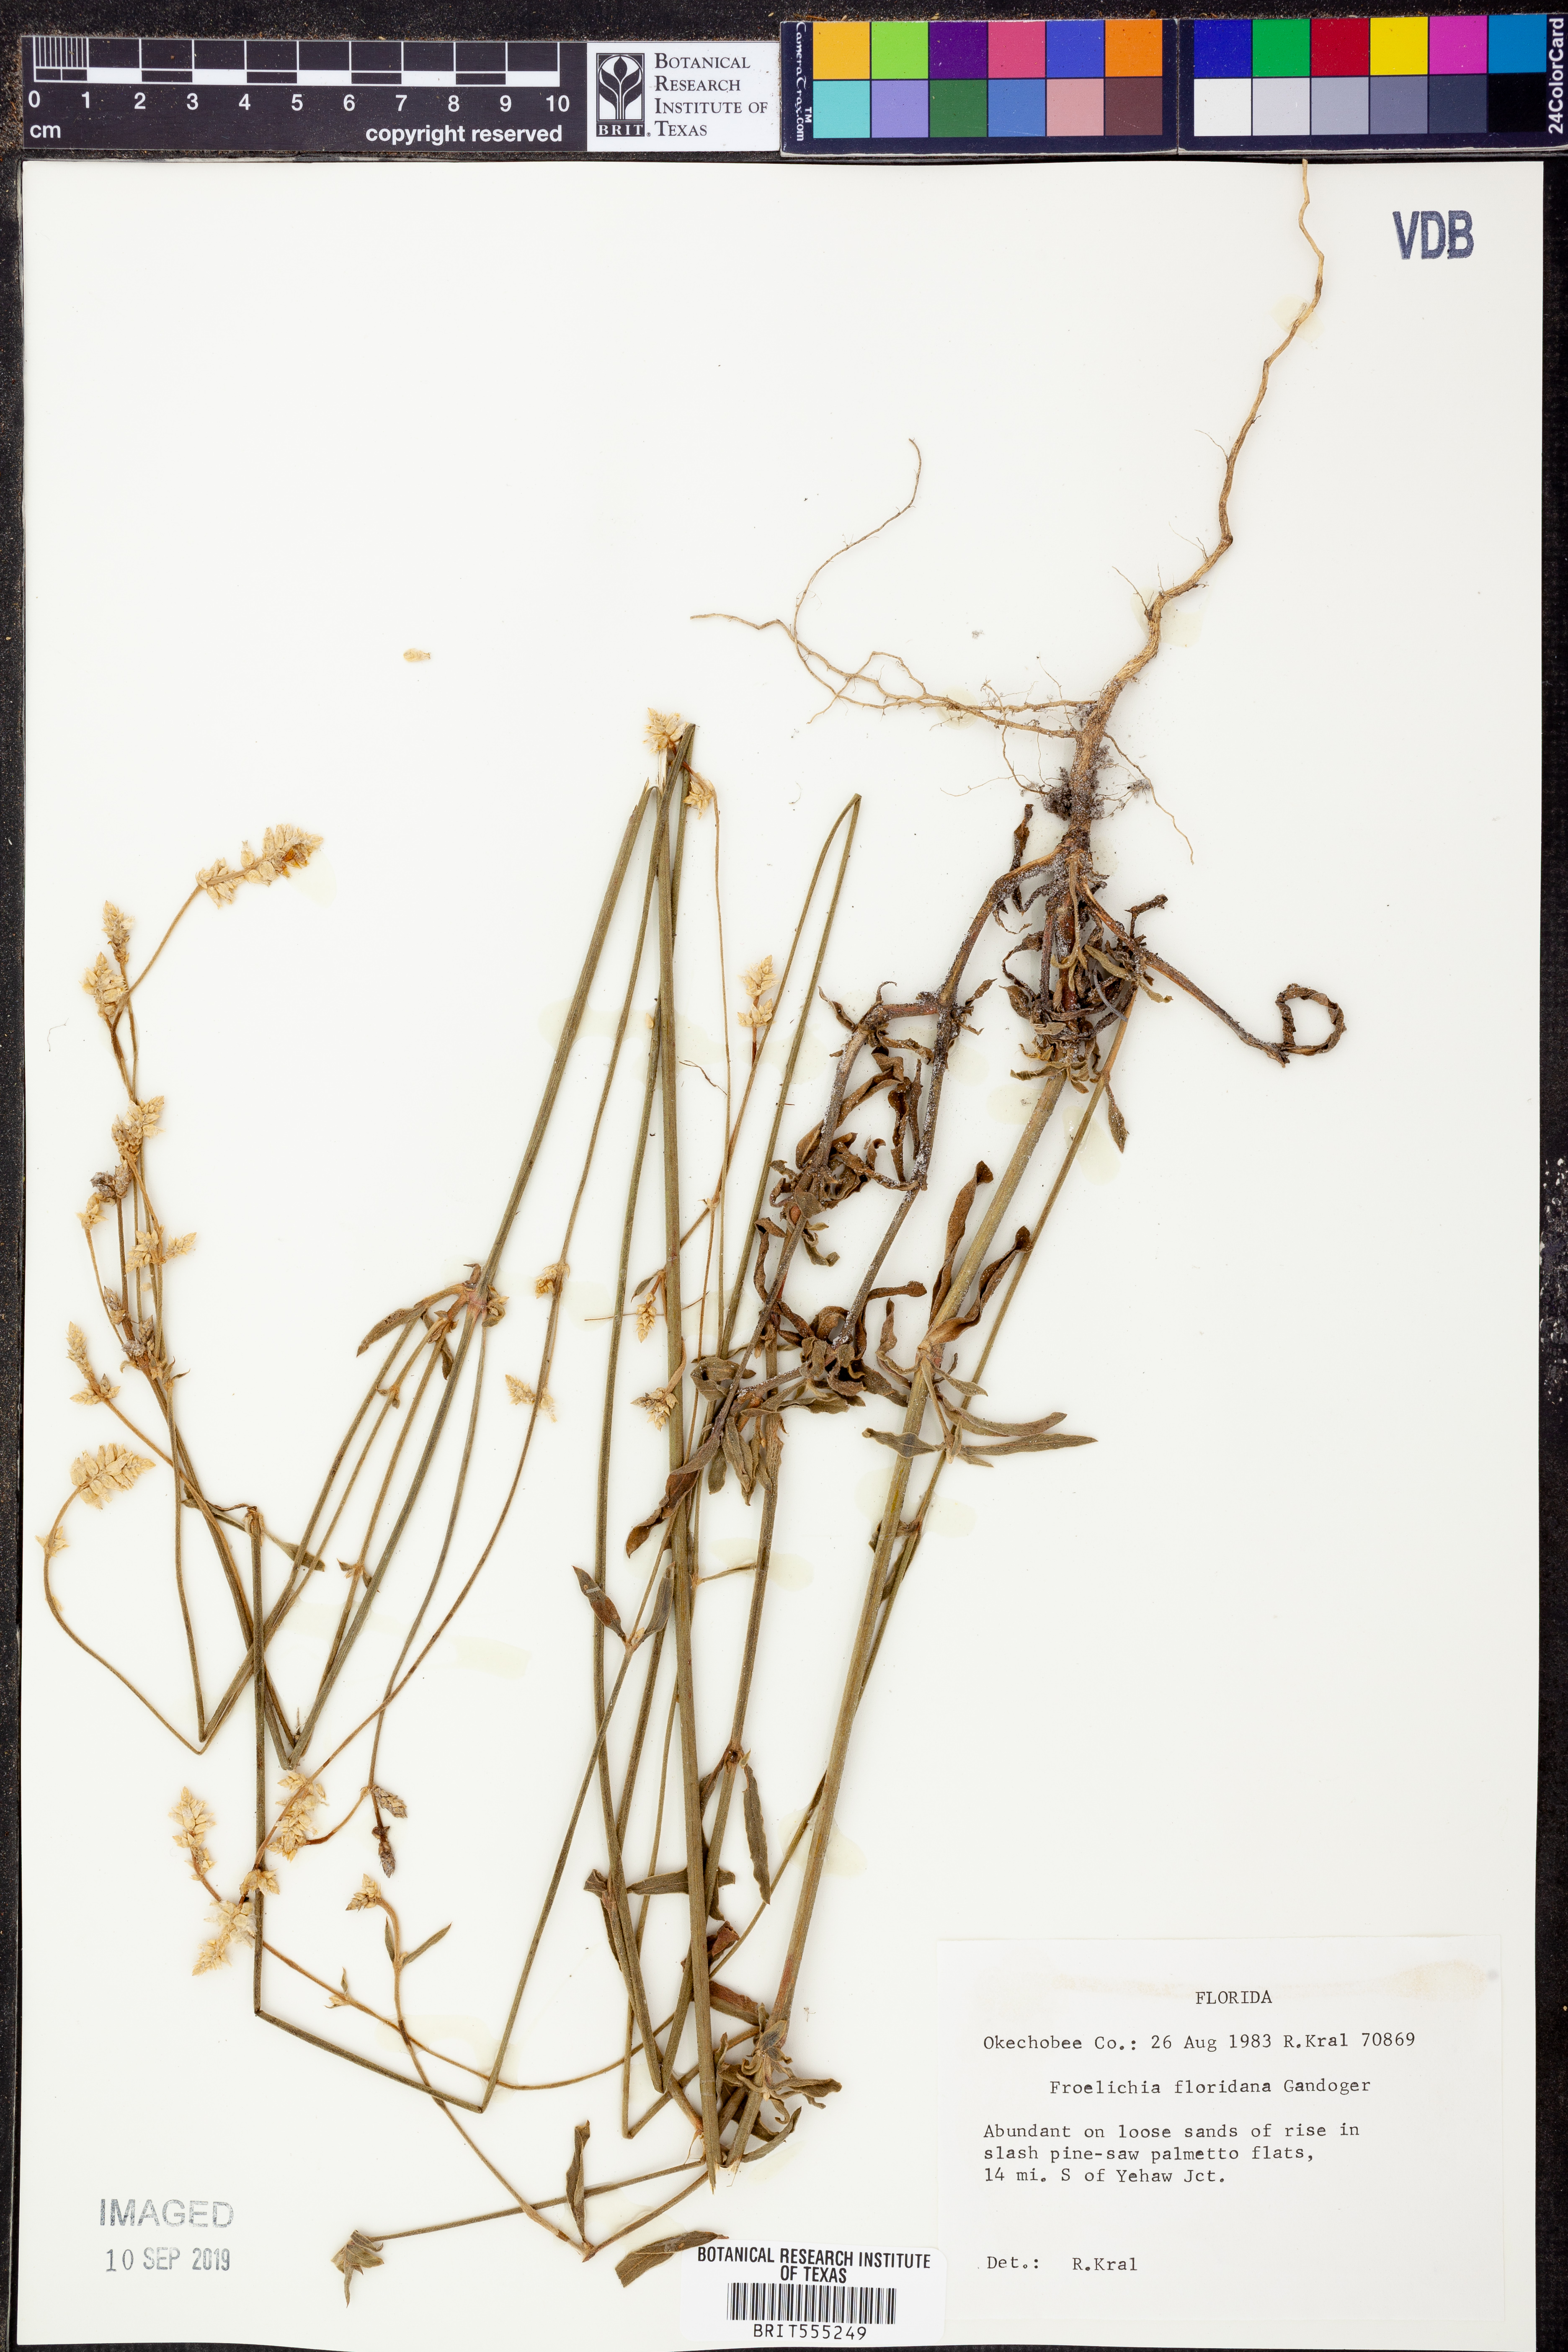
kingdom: Plantae
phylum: Tracheophyta
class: Magnoliopsida
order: Caryophyllales
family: Amaranthaceae
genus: Froelichia
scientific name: Froelichia floridana
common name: Florida snake-cotton
